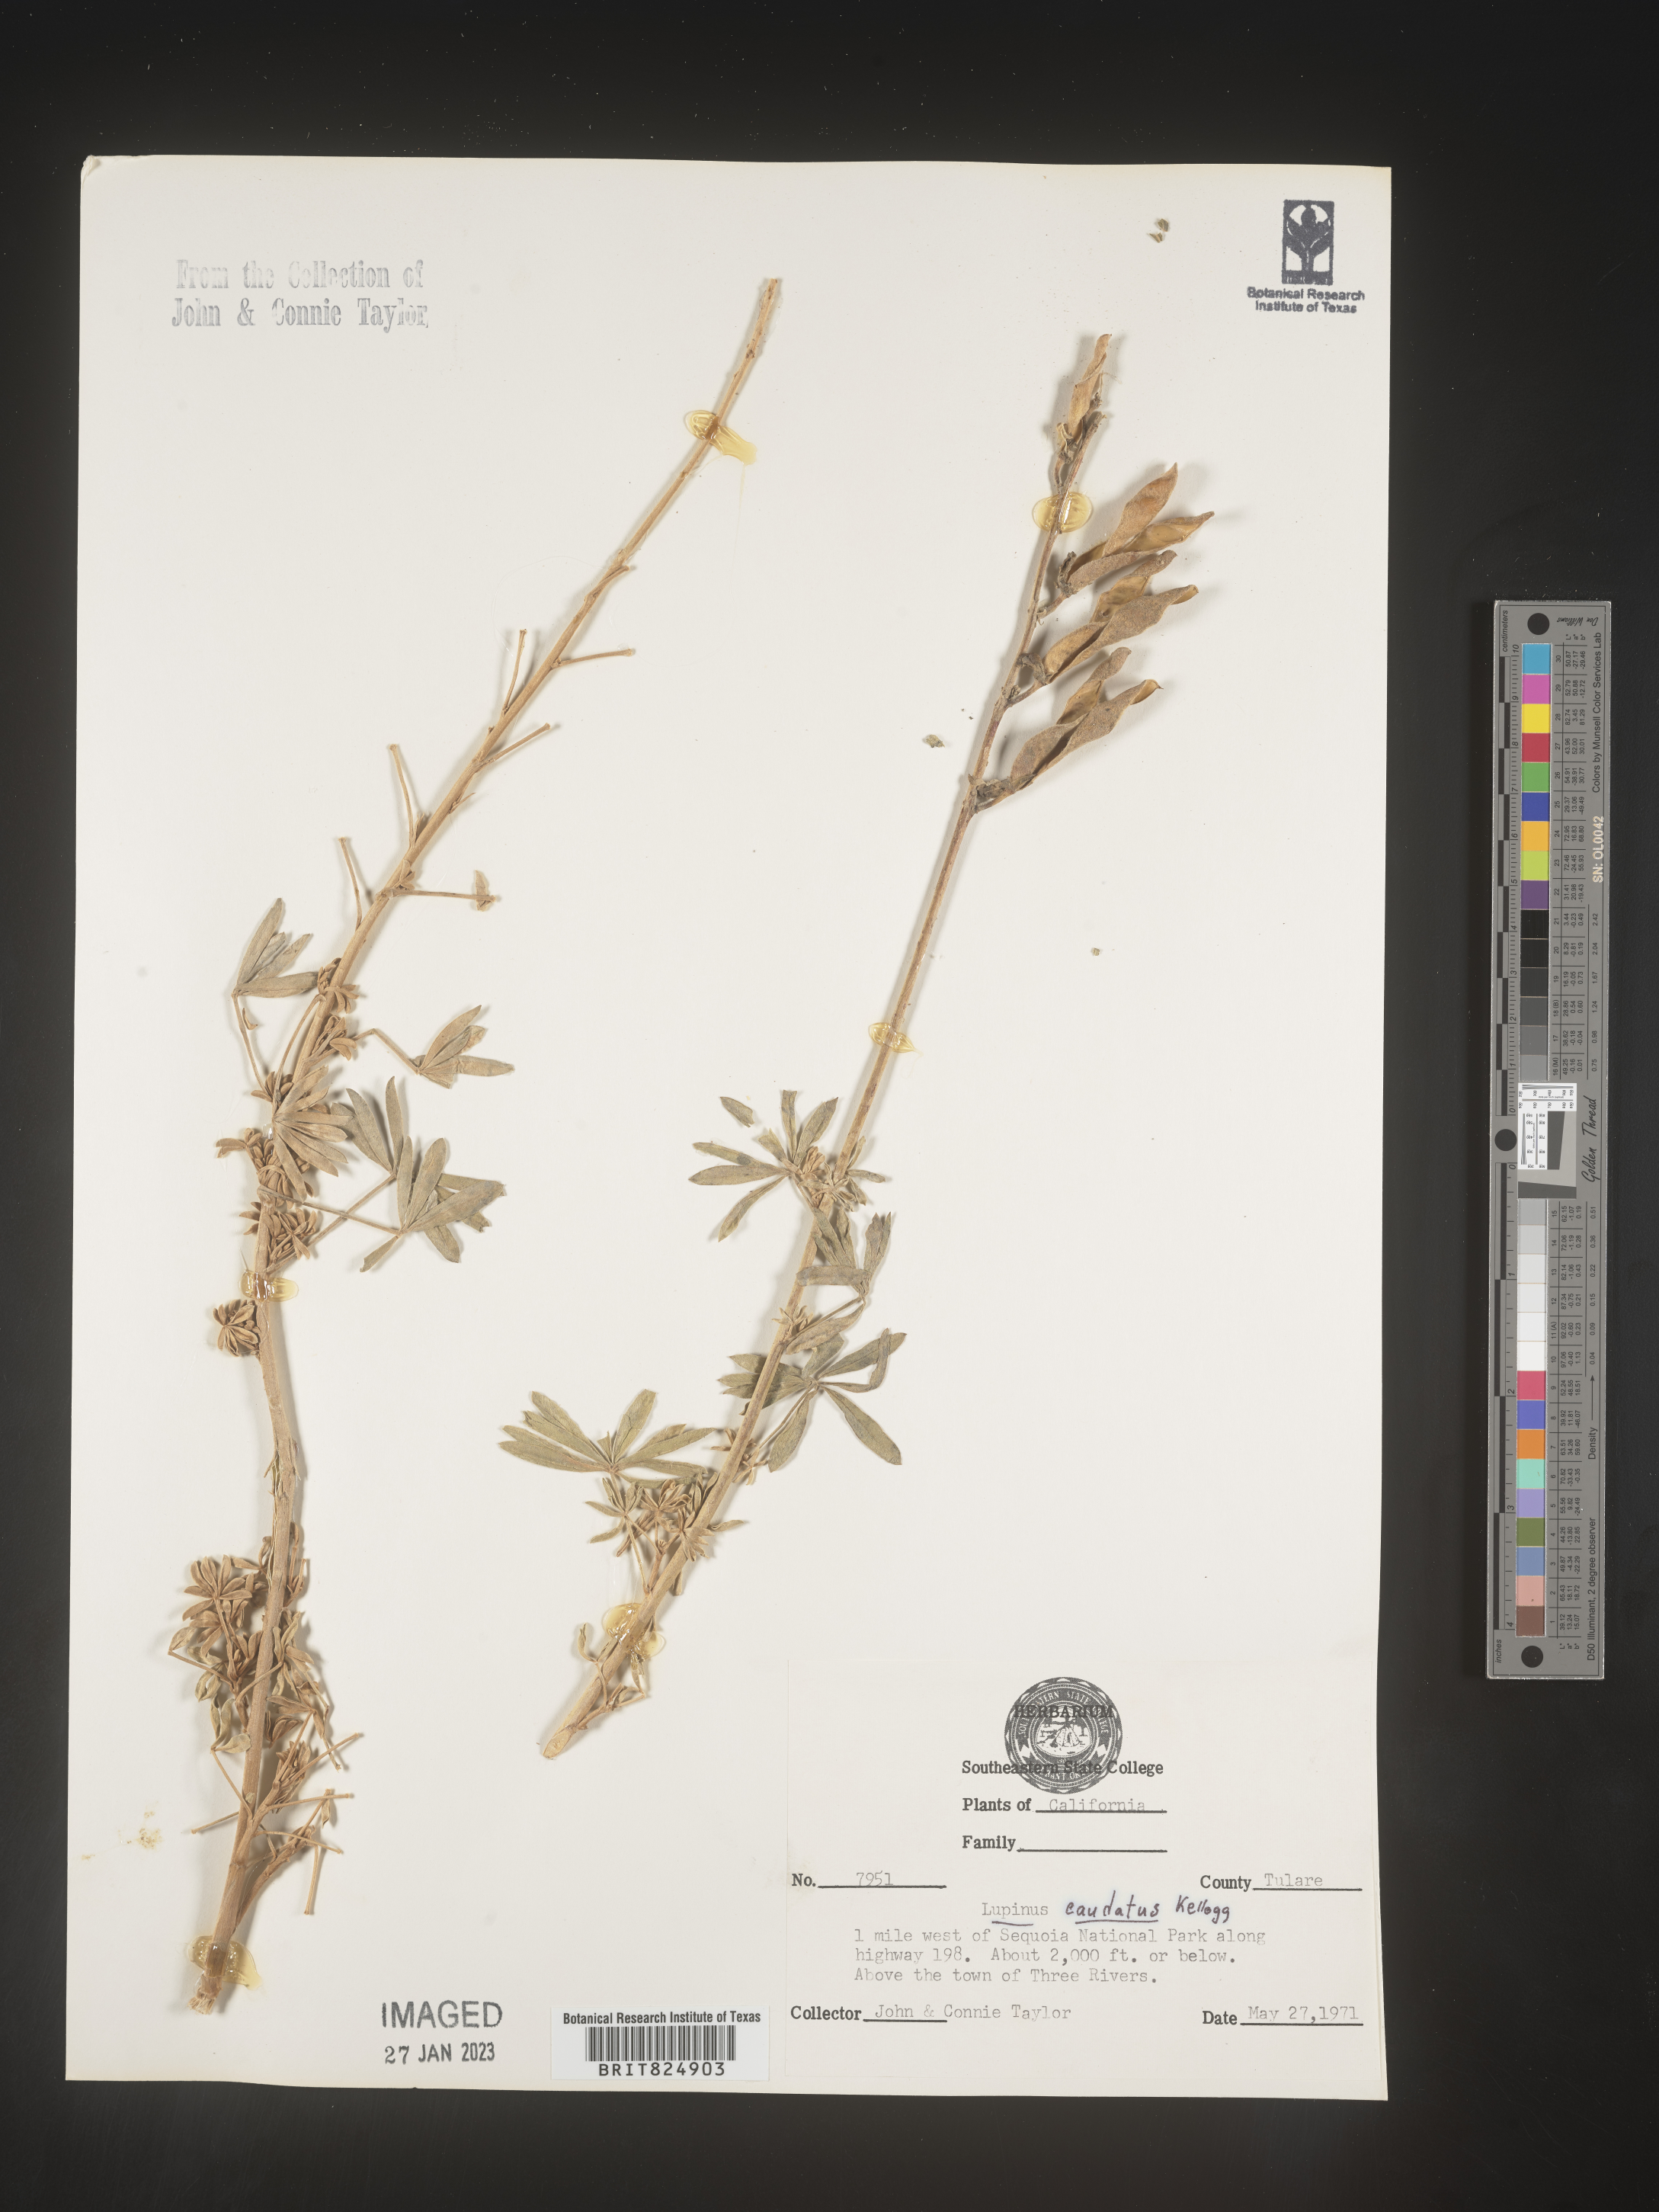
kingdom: Plantae
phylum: Tracheophyta
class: Magnoliopsida
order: Fabales
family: Fabaceae
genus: Lupinus
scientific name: Lupinus caudatus
